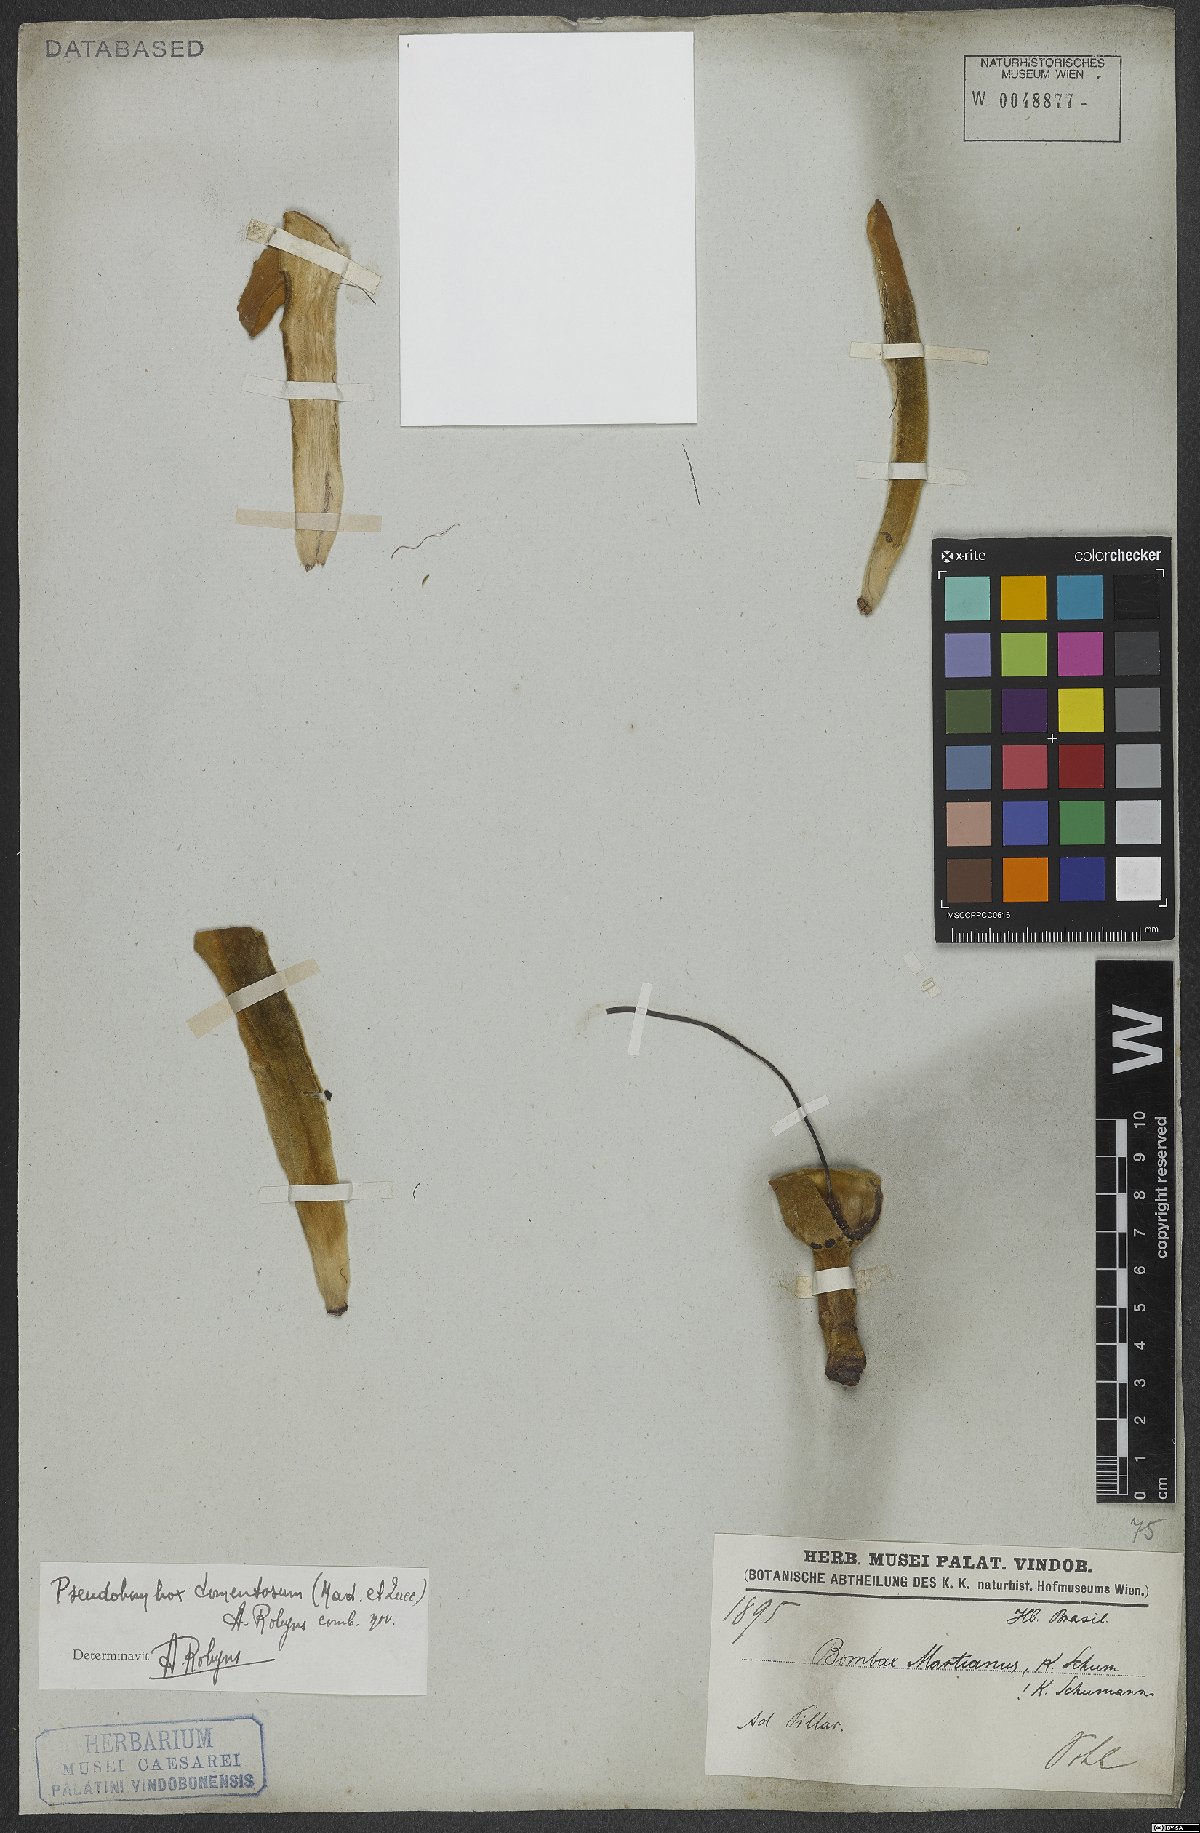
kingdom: Plantae
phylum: Tracheophyta
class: Magnoliopsida
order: Malvales
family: Malvaceae
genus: Pseudobombax
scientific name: Pseudobombax tomentosum
